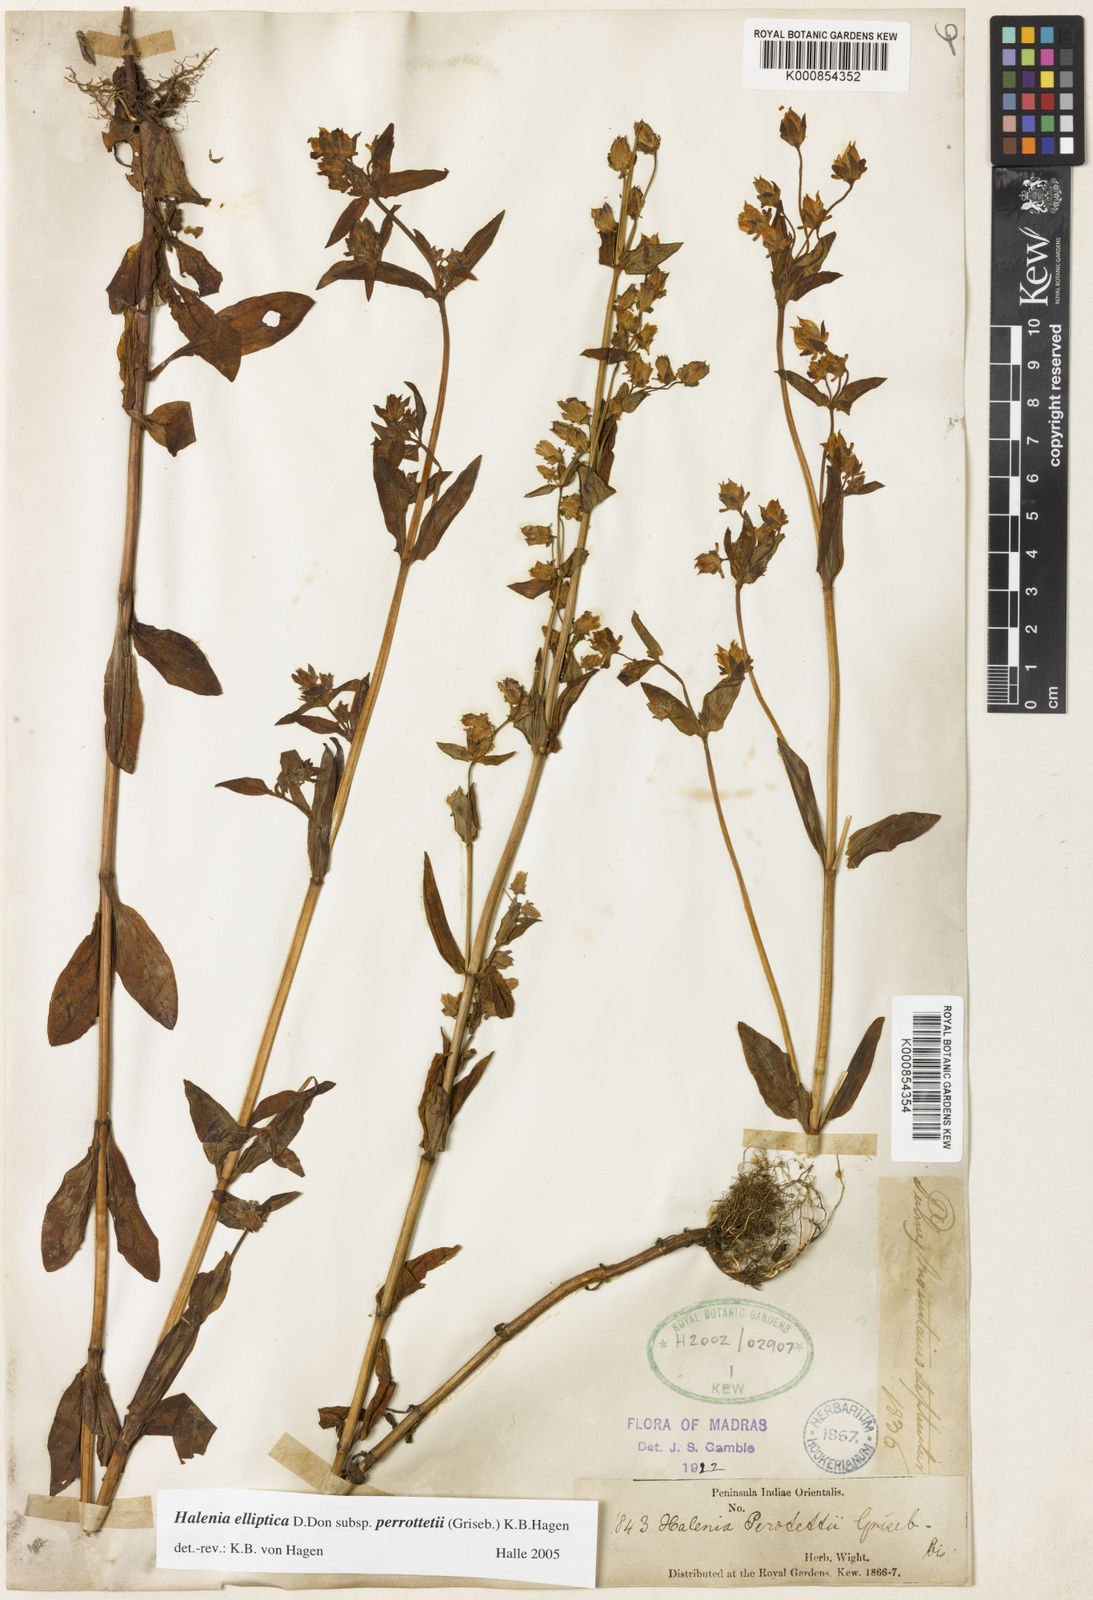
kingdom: Plantae
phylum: Tracheophyta
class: Magnoliopsida
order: Gentianales
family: Gentianaceae
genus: Halenia
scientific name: Halenia perrottetii
